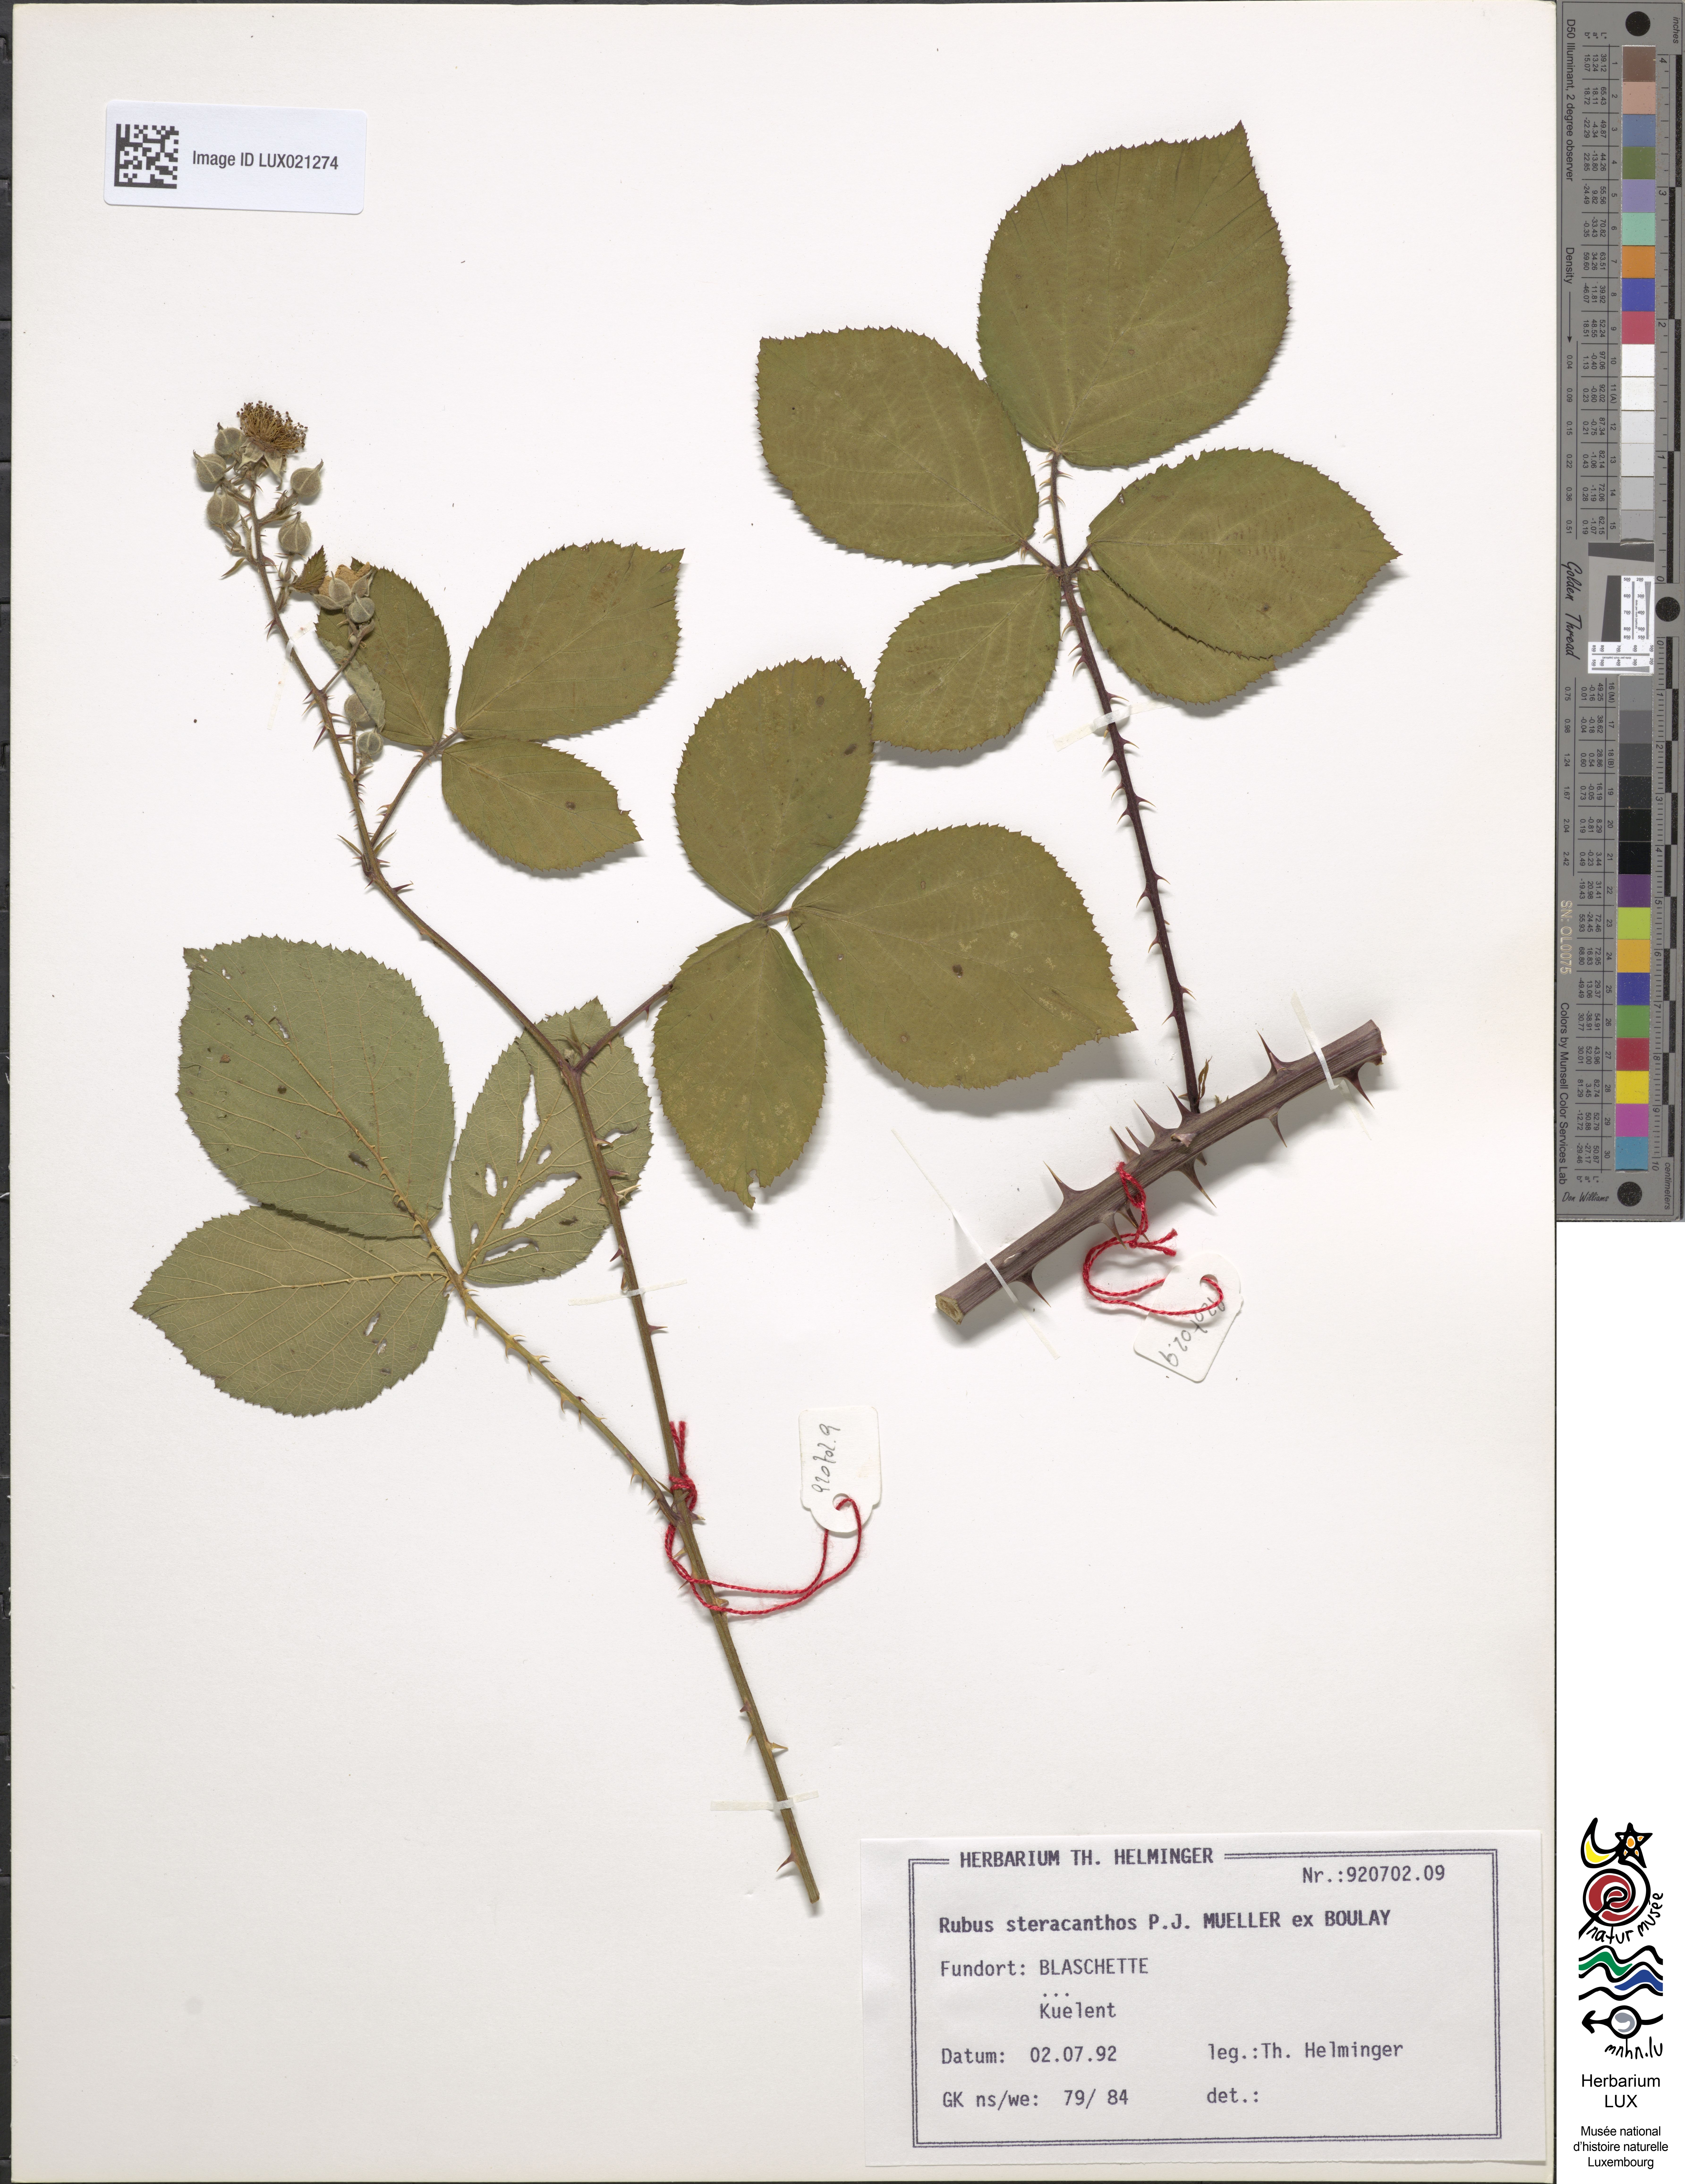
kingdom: Plantae
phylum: Tracheophyta
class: Magnoliopsida
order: Rosales
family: Rosaceae
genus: Rubus
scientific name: Rubus steracanthos
